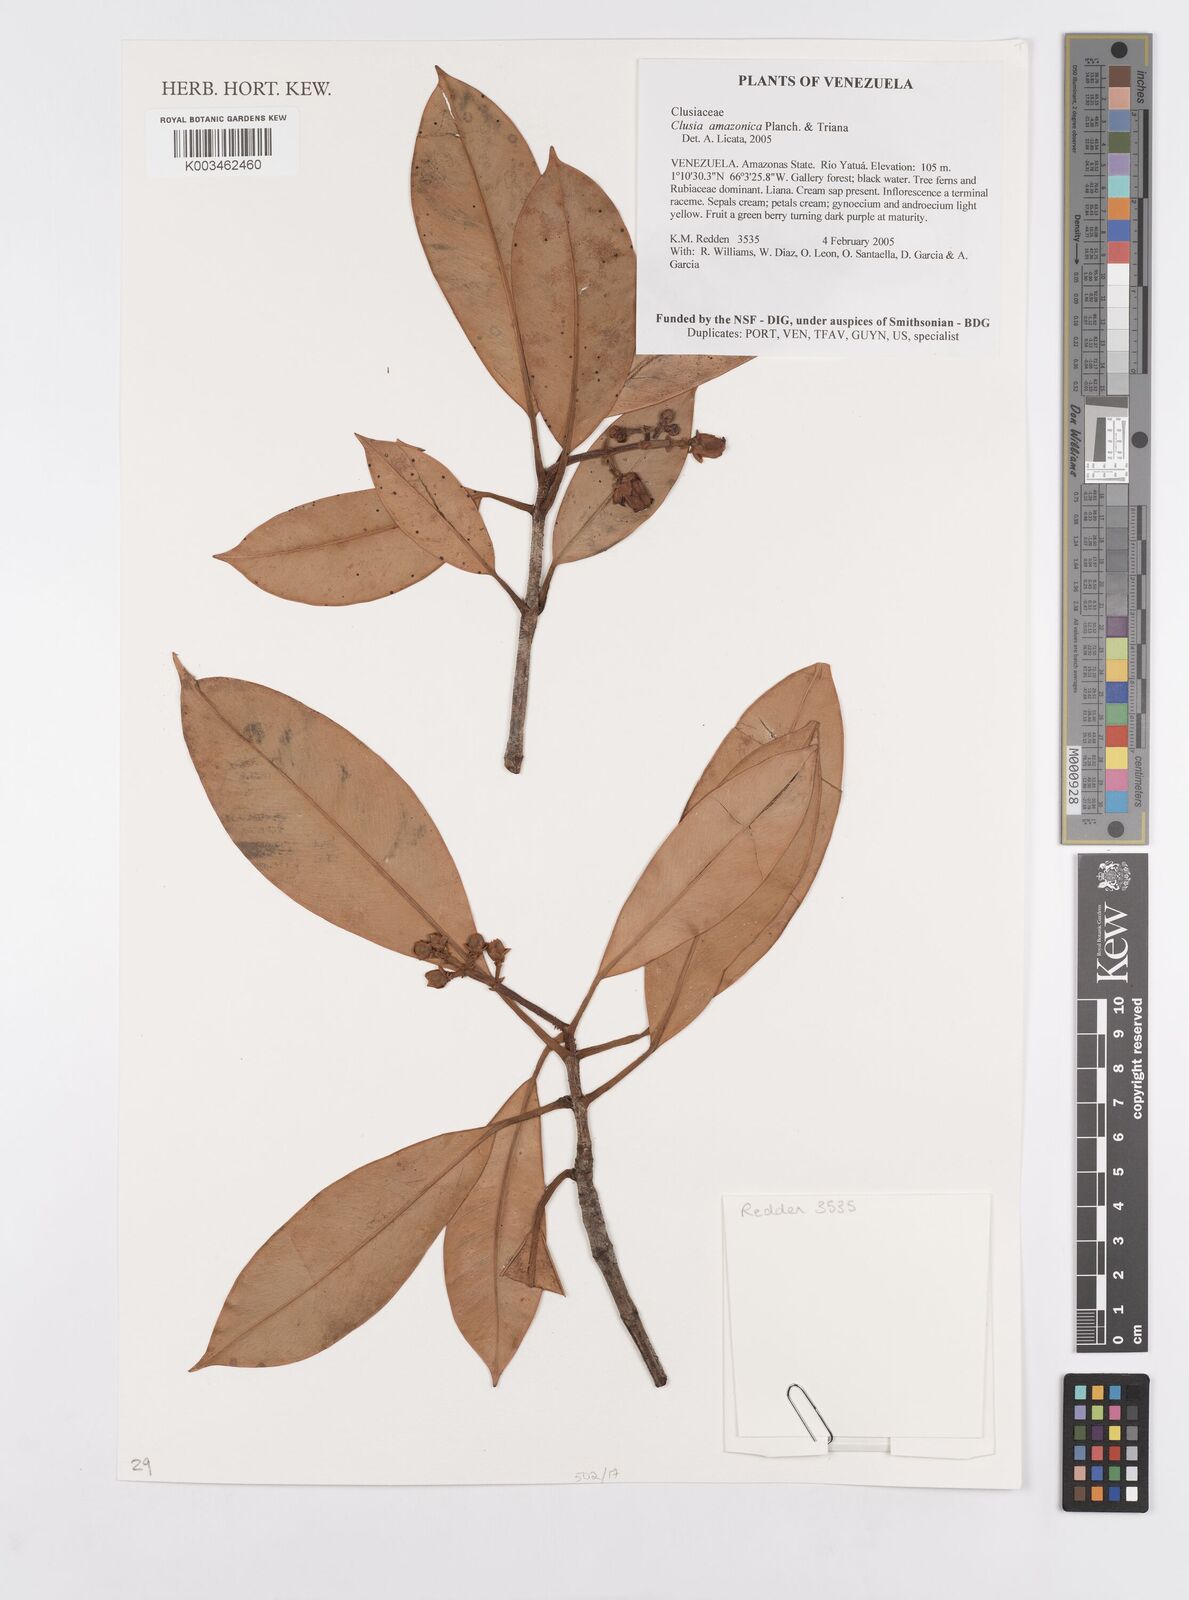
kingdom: Plantae
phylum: Tracheophyta
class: Magnoliopsida
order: Malpighiales
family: Clusiaceae
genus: Clusia
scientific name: Clusia amazonica
